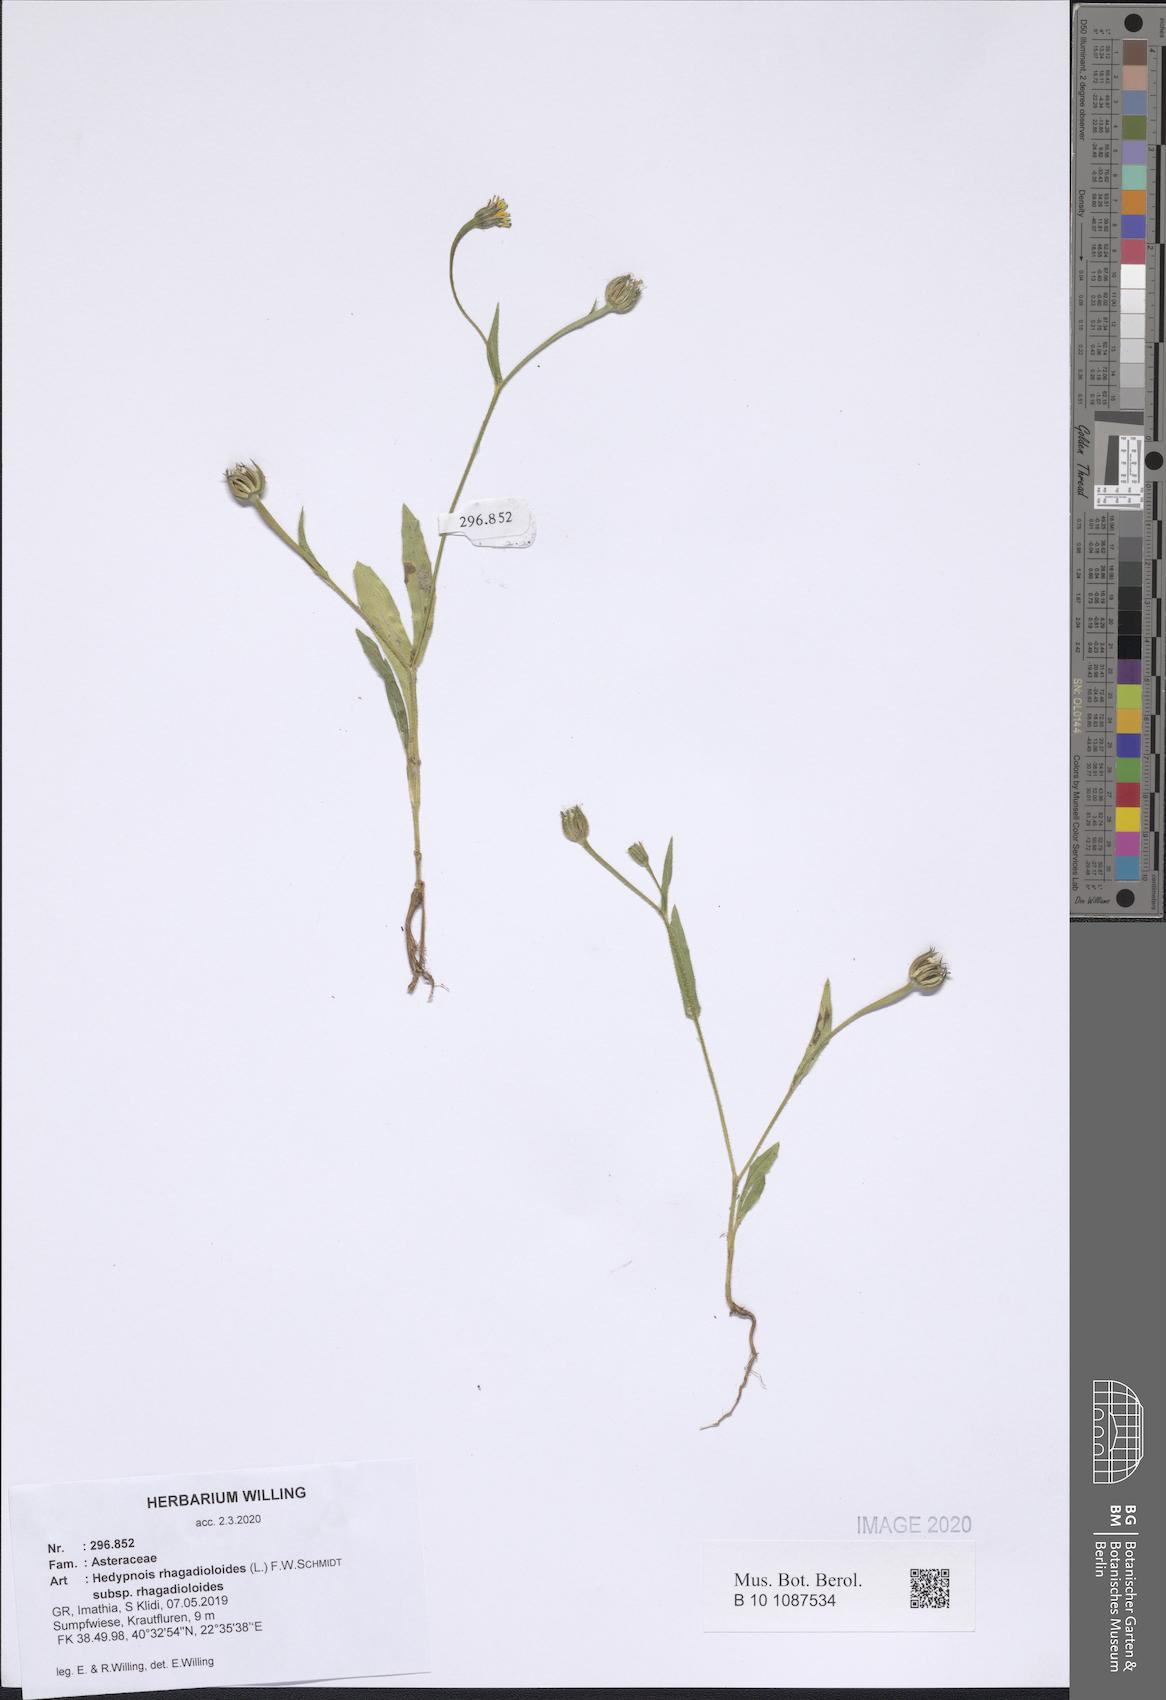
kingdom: Plantae
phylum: Tracheophyta
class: Magnoliopsida
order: Asterales
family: Asteraceae
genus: Hedypnois
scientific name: Hedypnois rhagadioloides
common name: Cretan weed
